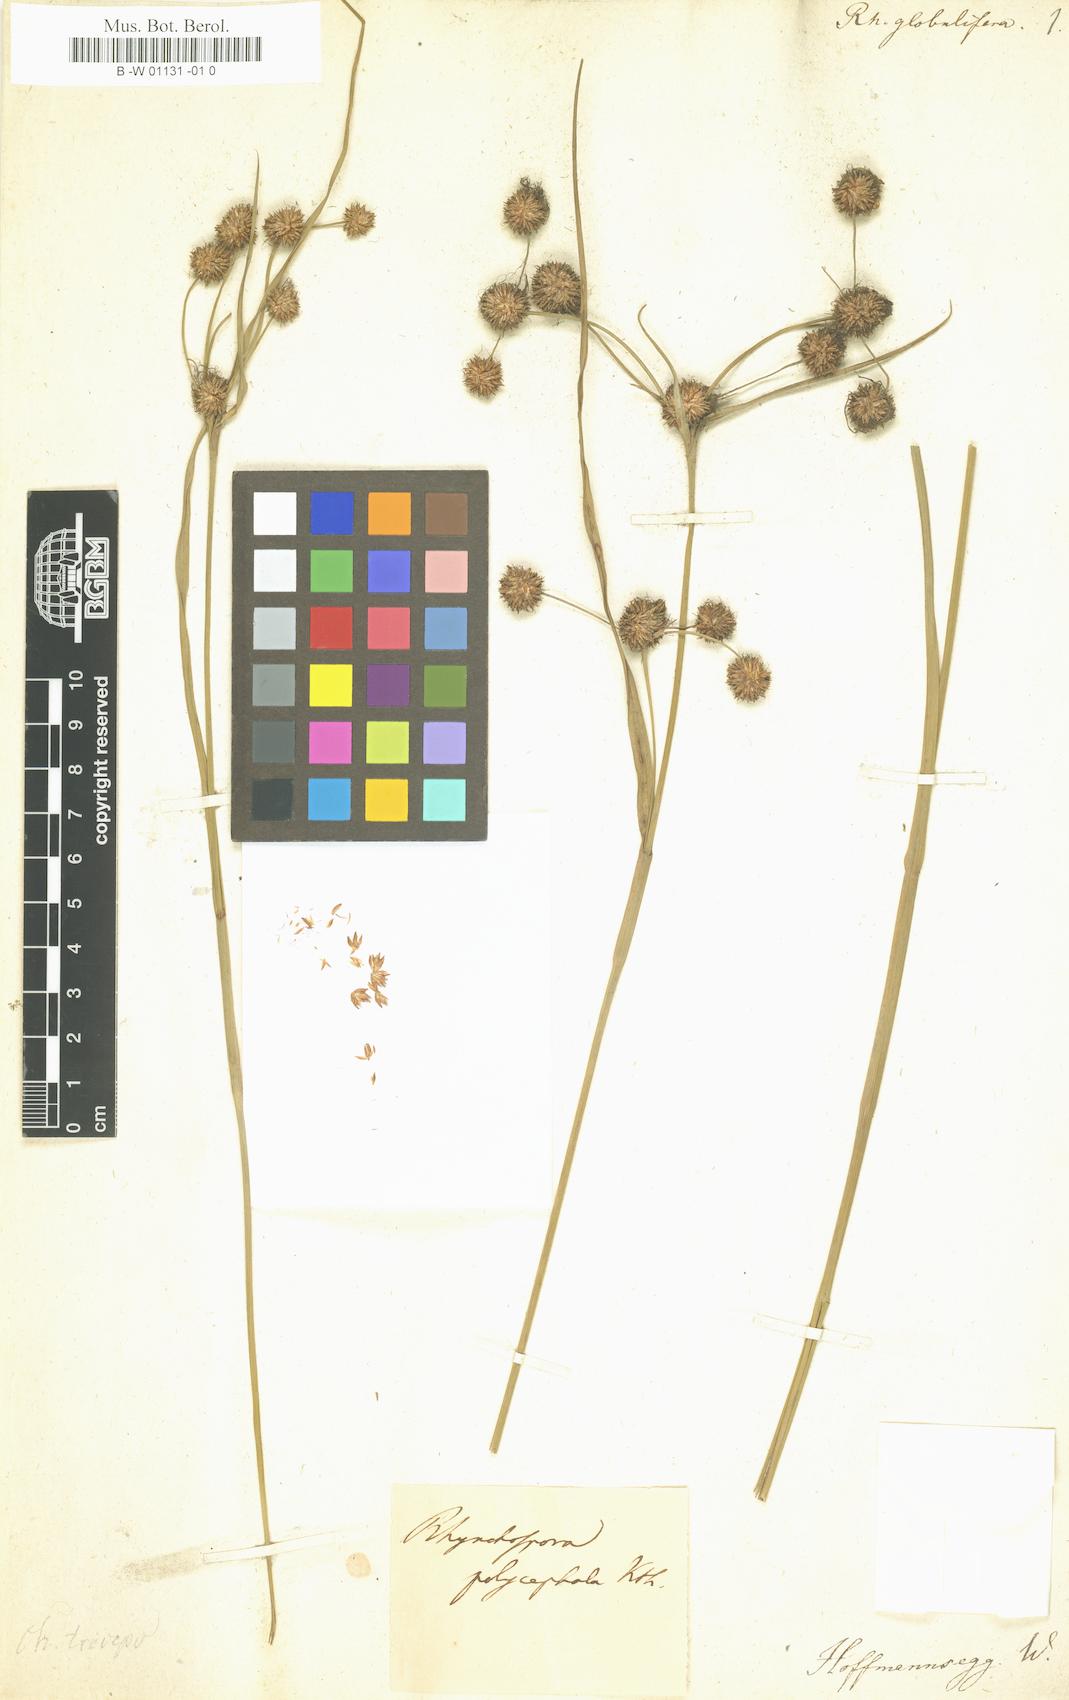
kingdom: Plantae
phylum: Tracheophyta
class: Liliopsida
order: Poales
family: Cyperaceae
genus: Rhynchospora
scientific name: Rhynchospora holoschoenoides
